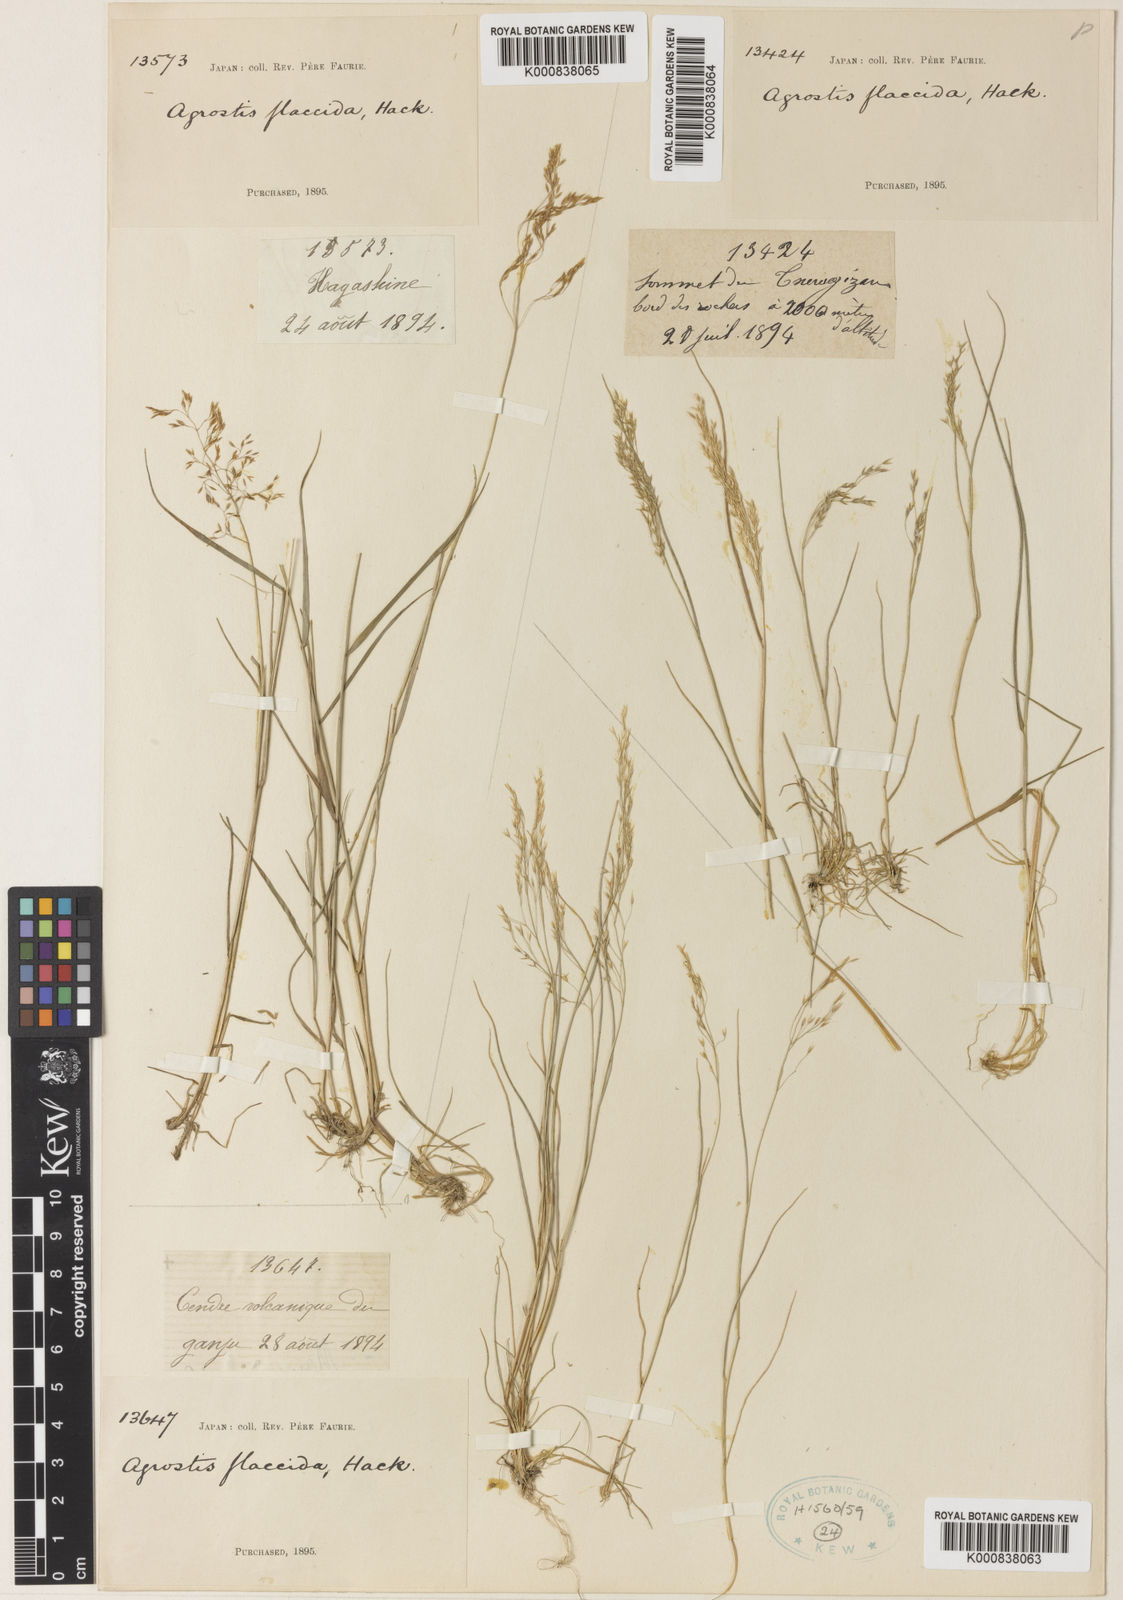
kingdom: Plantae
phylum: Tracheophyta
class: Liliopsida
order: Poales
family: Poaceae
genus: Agrostis
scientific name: Agrostis flaccida
